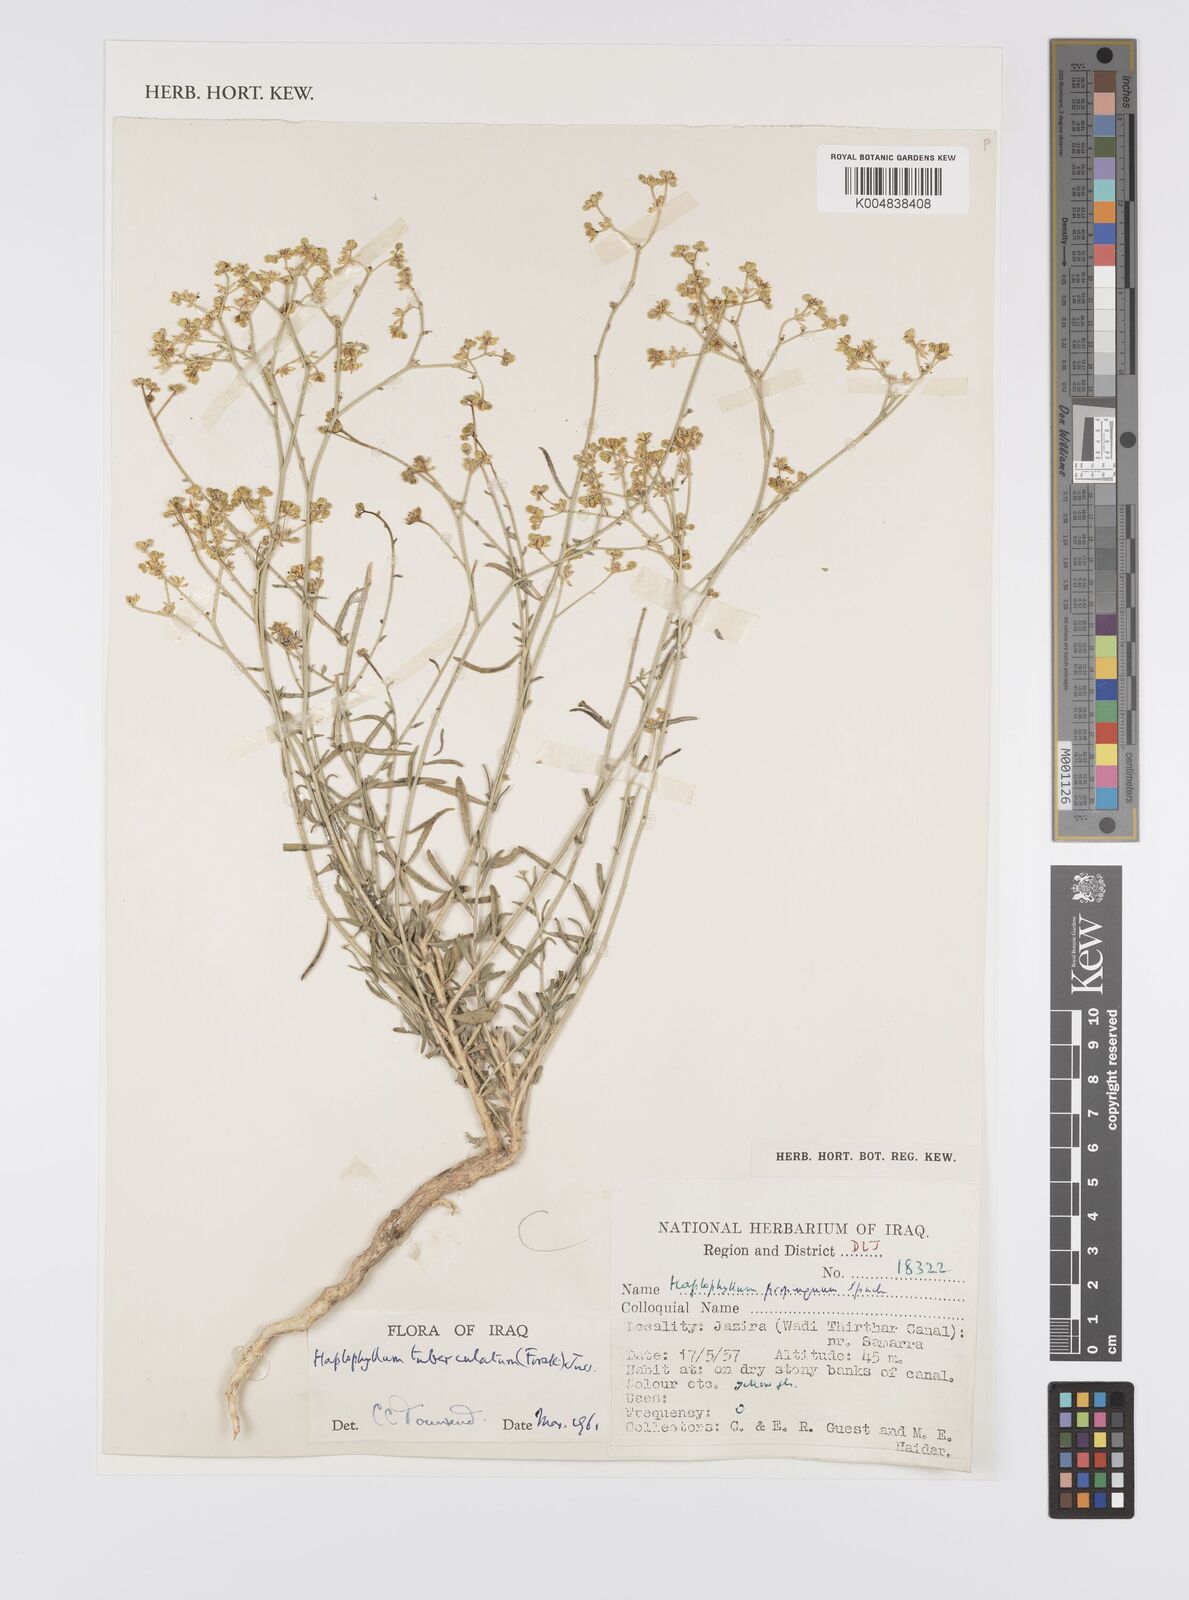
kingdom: Plantae
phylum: Tracheophyta
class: Magnoliopsida
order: Sapindales
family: Rutaceae
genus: Haplophyllum
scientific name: Haplophyllum tuberculatum
